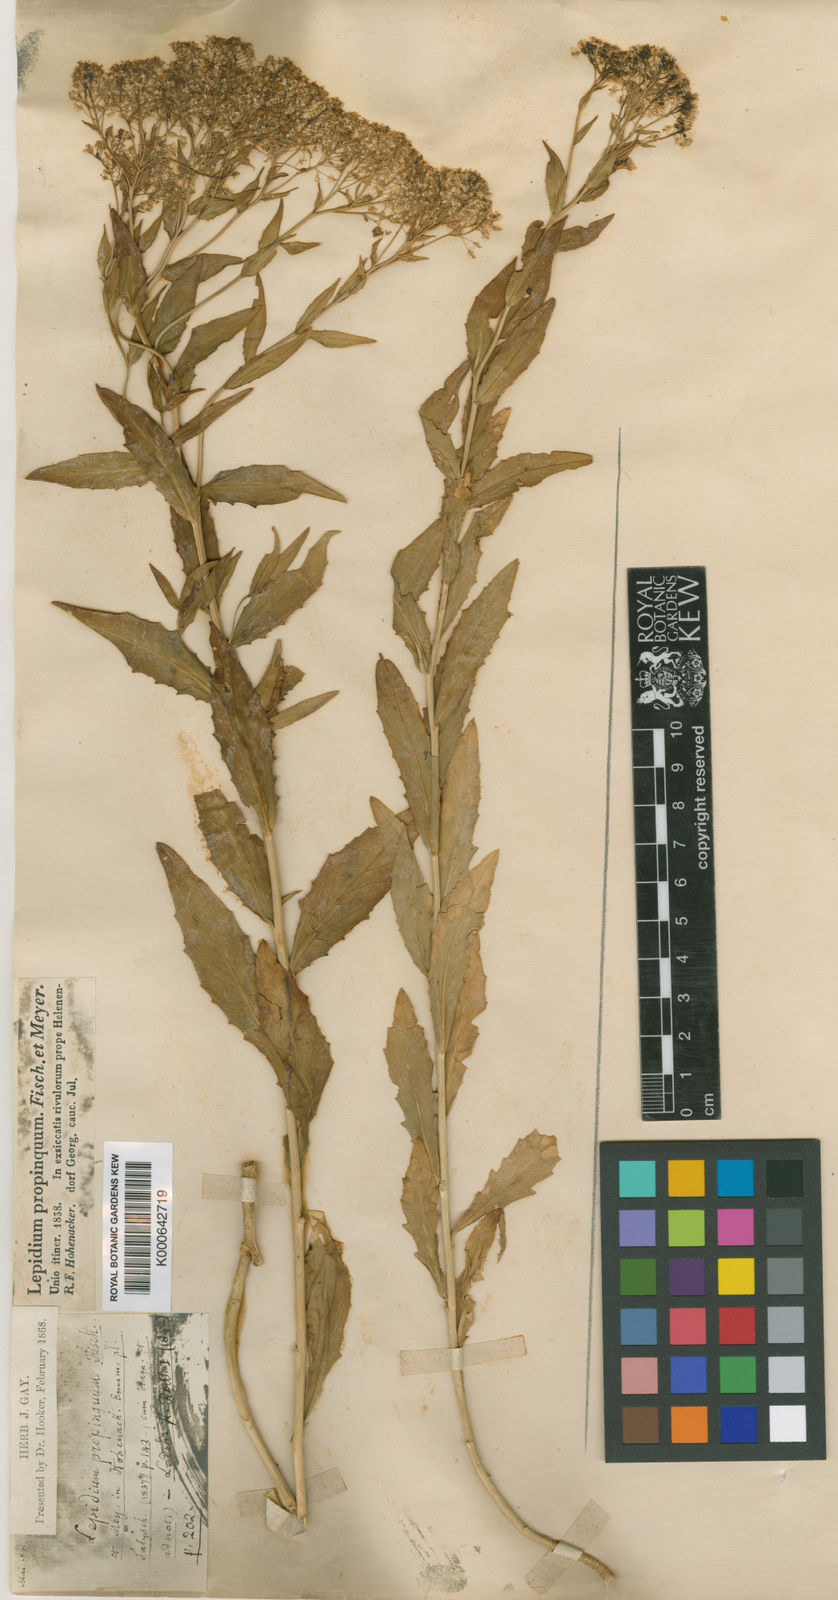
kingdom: Plantae
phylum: Tracheophyta
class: Magnoliopsida
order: Brassicales
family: Brassicaceae
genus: Lepidium
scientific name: Lepidium draba
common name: Hoary cress
